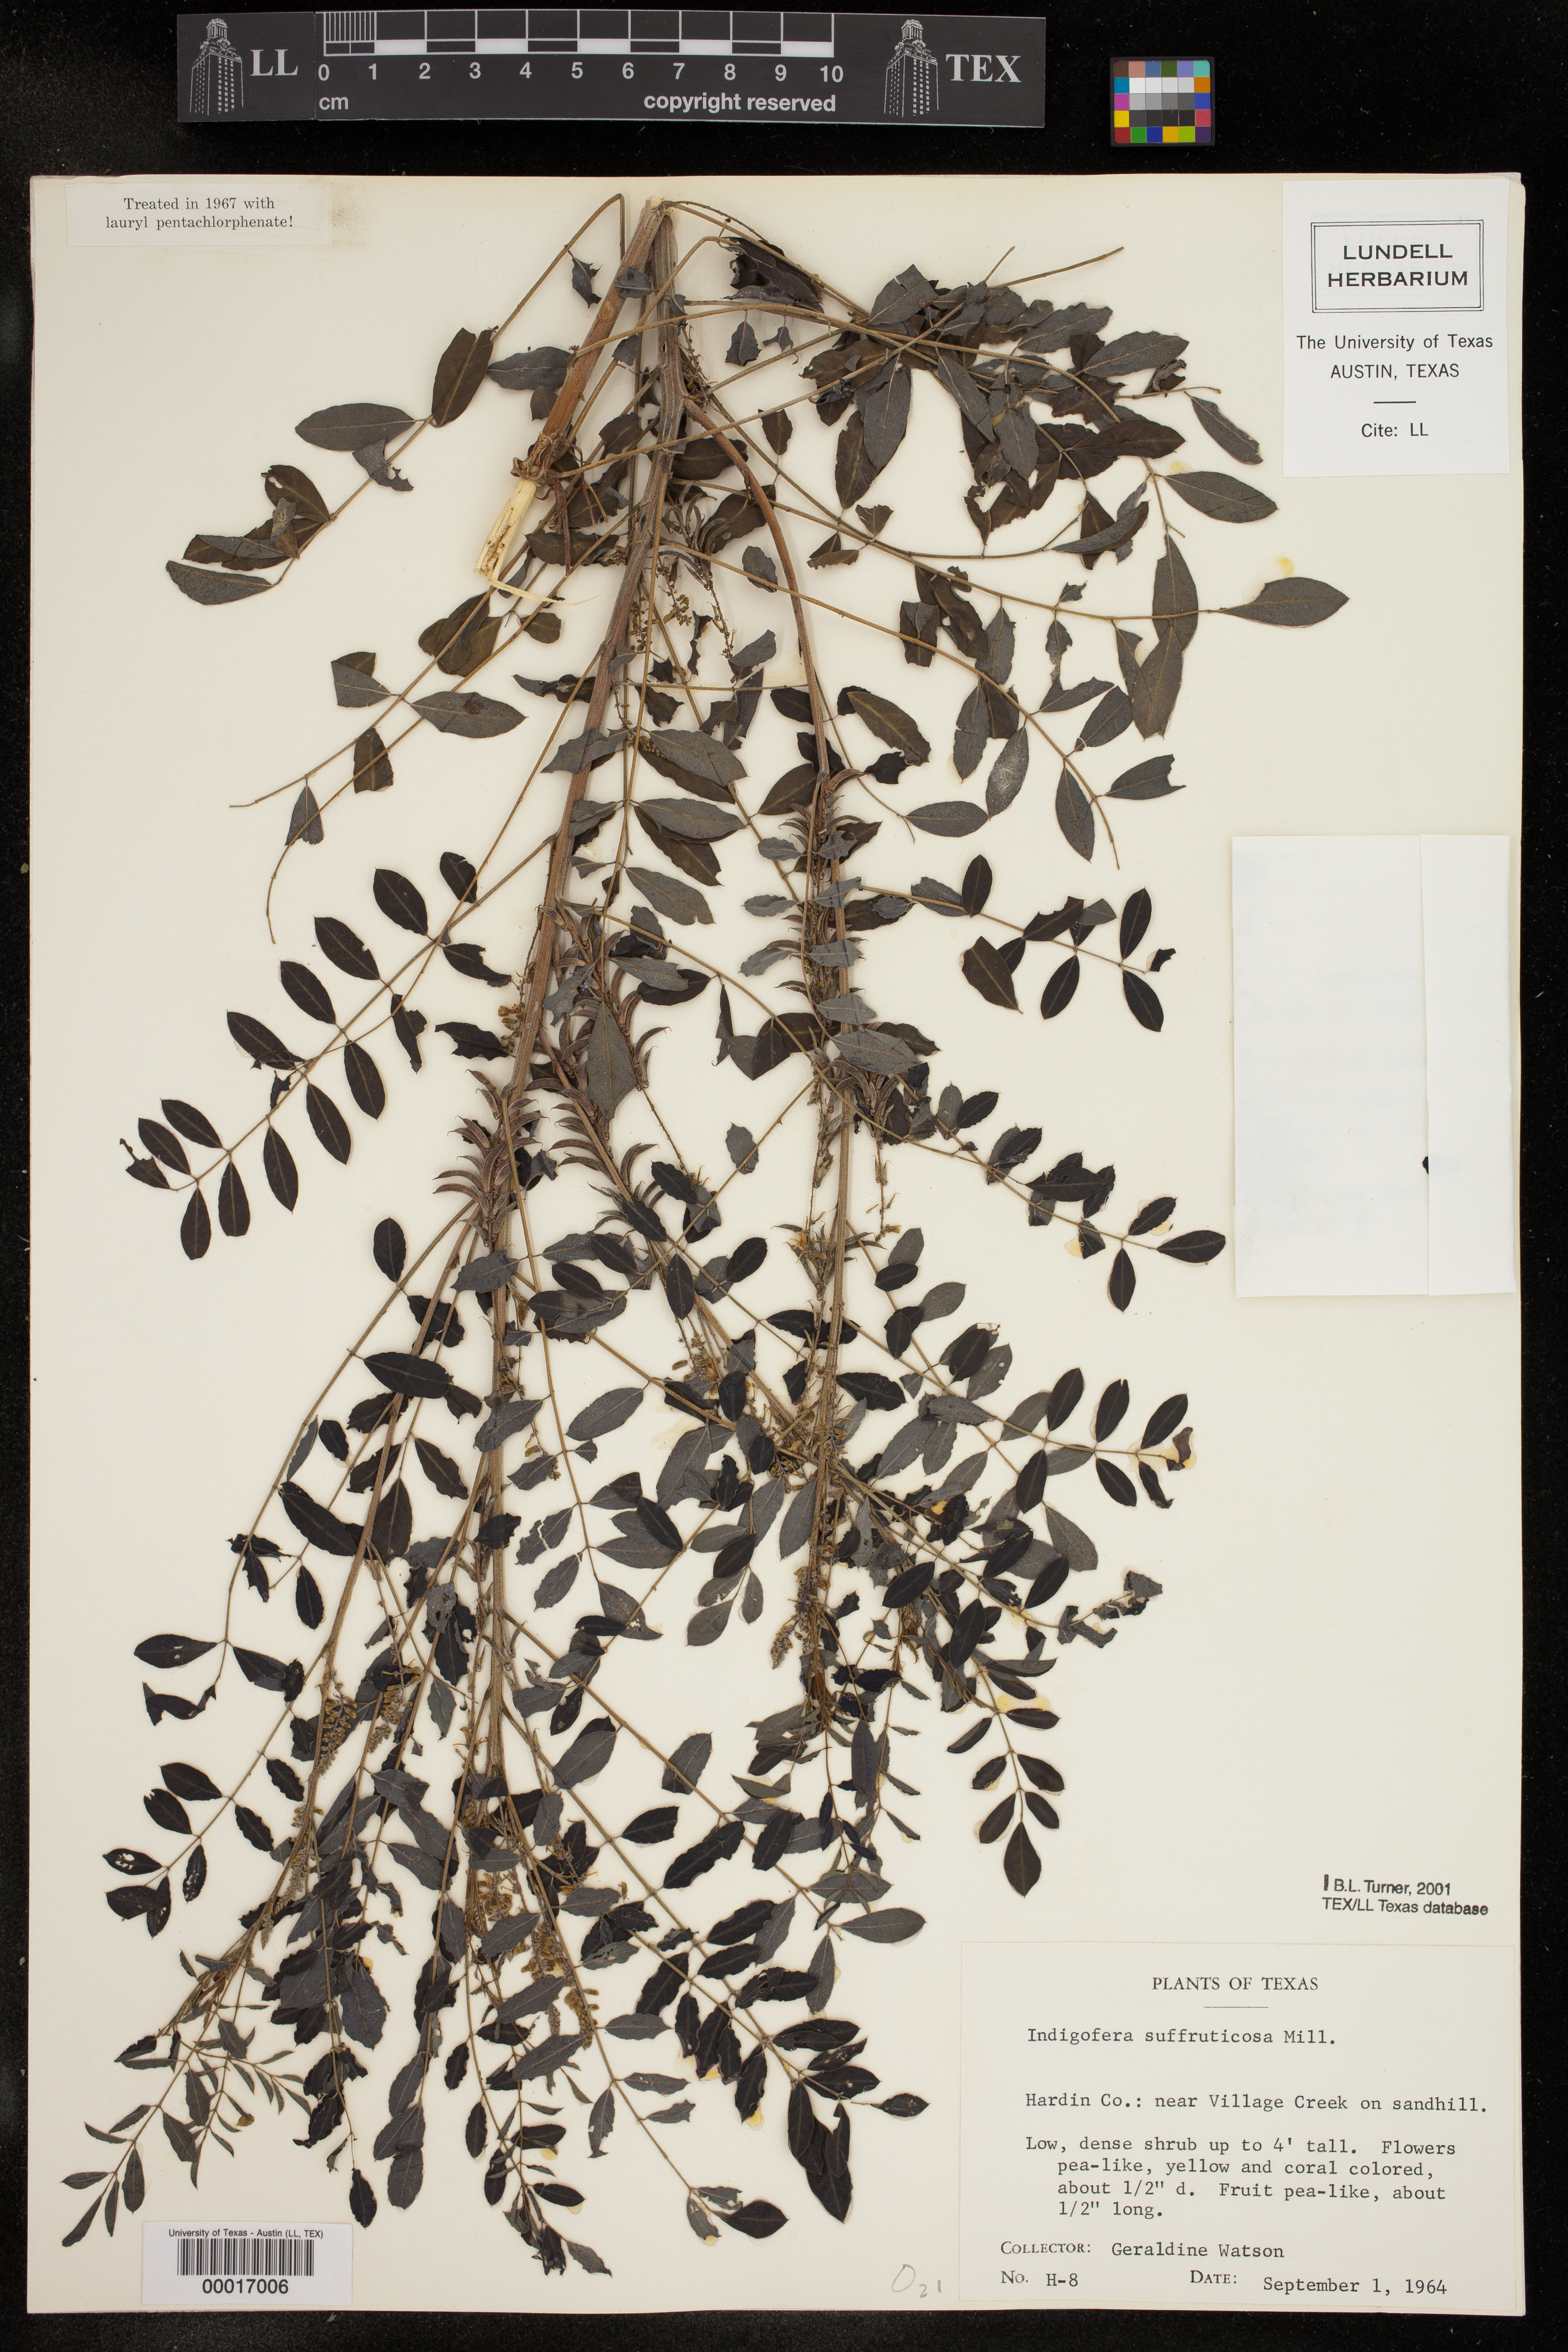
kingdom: Plantae
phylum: Tracheophyta
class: Magnoliopsida
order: Fabales
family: Fabaceae
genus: Indigofera
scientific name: Indigofera suffruticosa
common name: Anil de pasto
